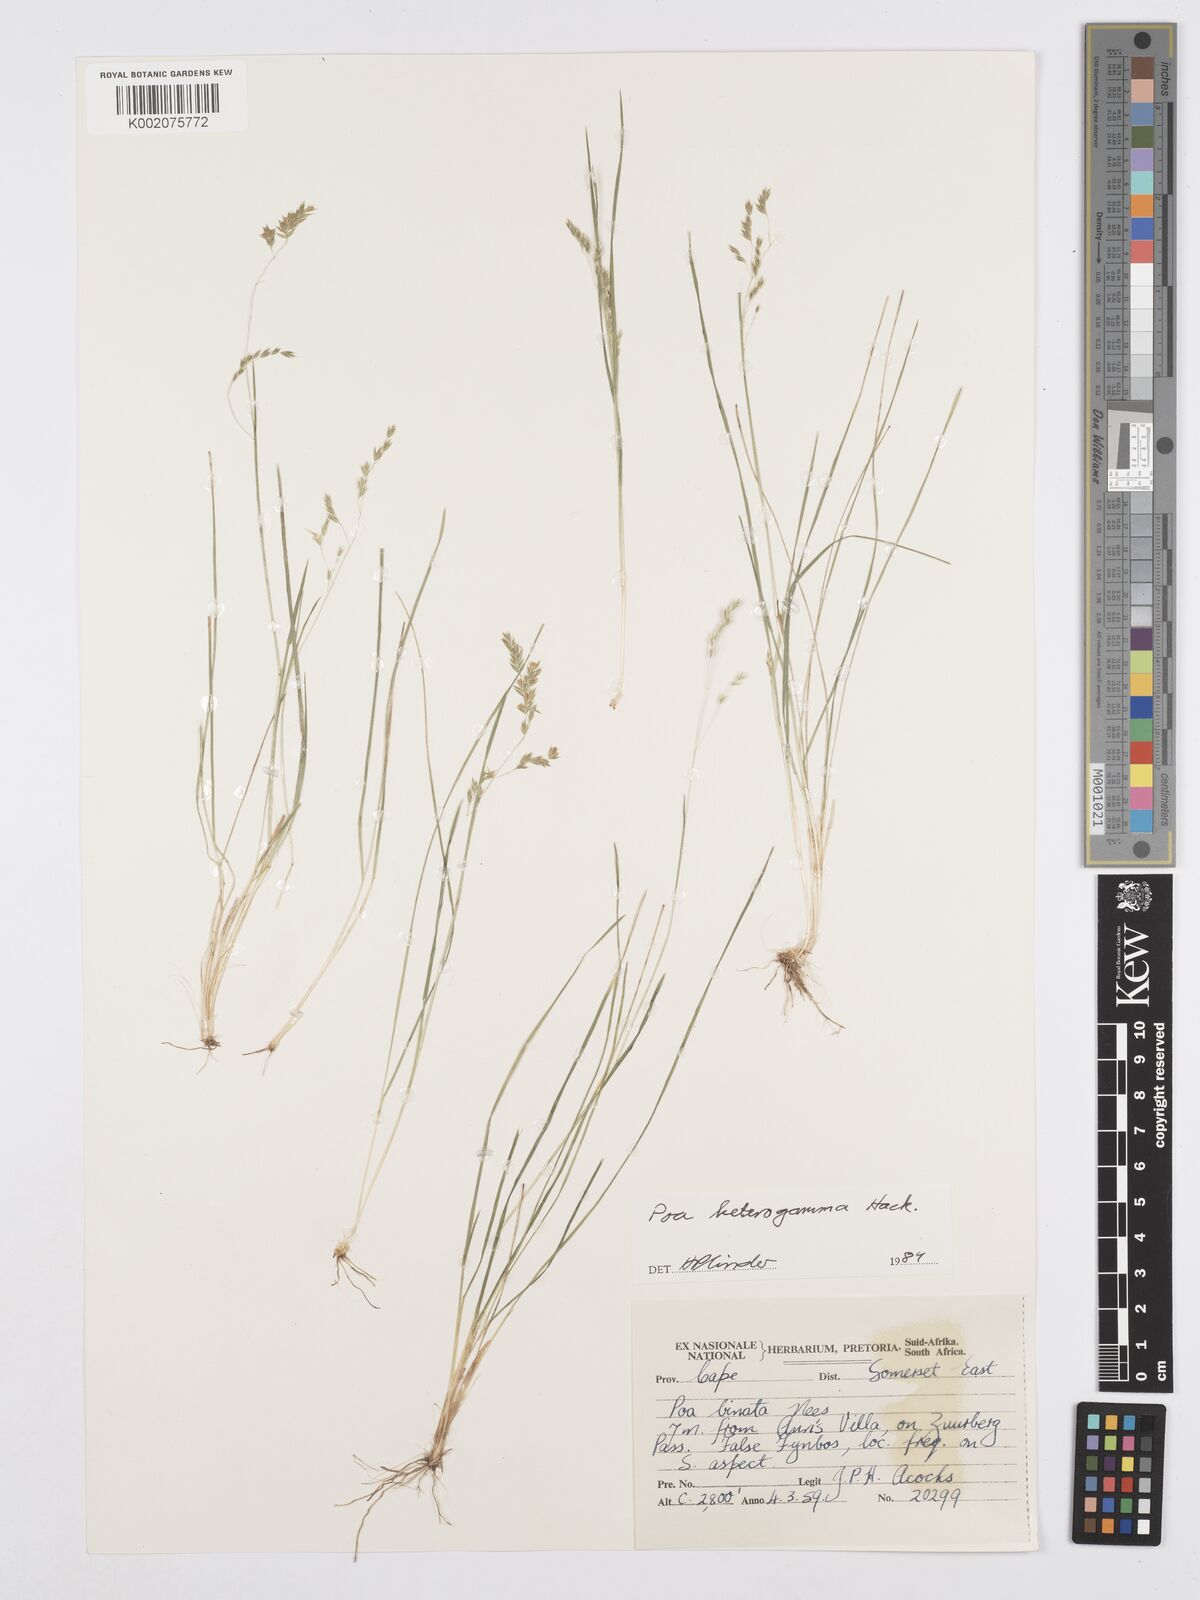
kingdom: Plantae
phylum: Tracheophyta
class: Liliopsida
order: Poales
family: Poaceae
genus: Poa
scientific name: Poa binata
